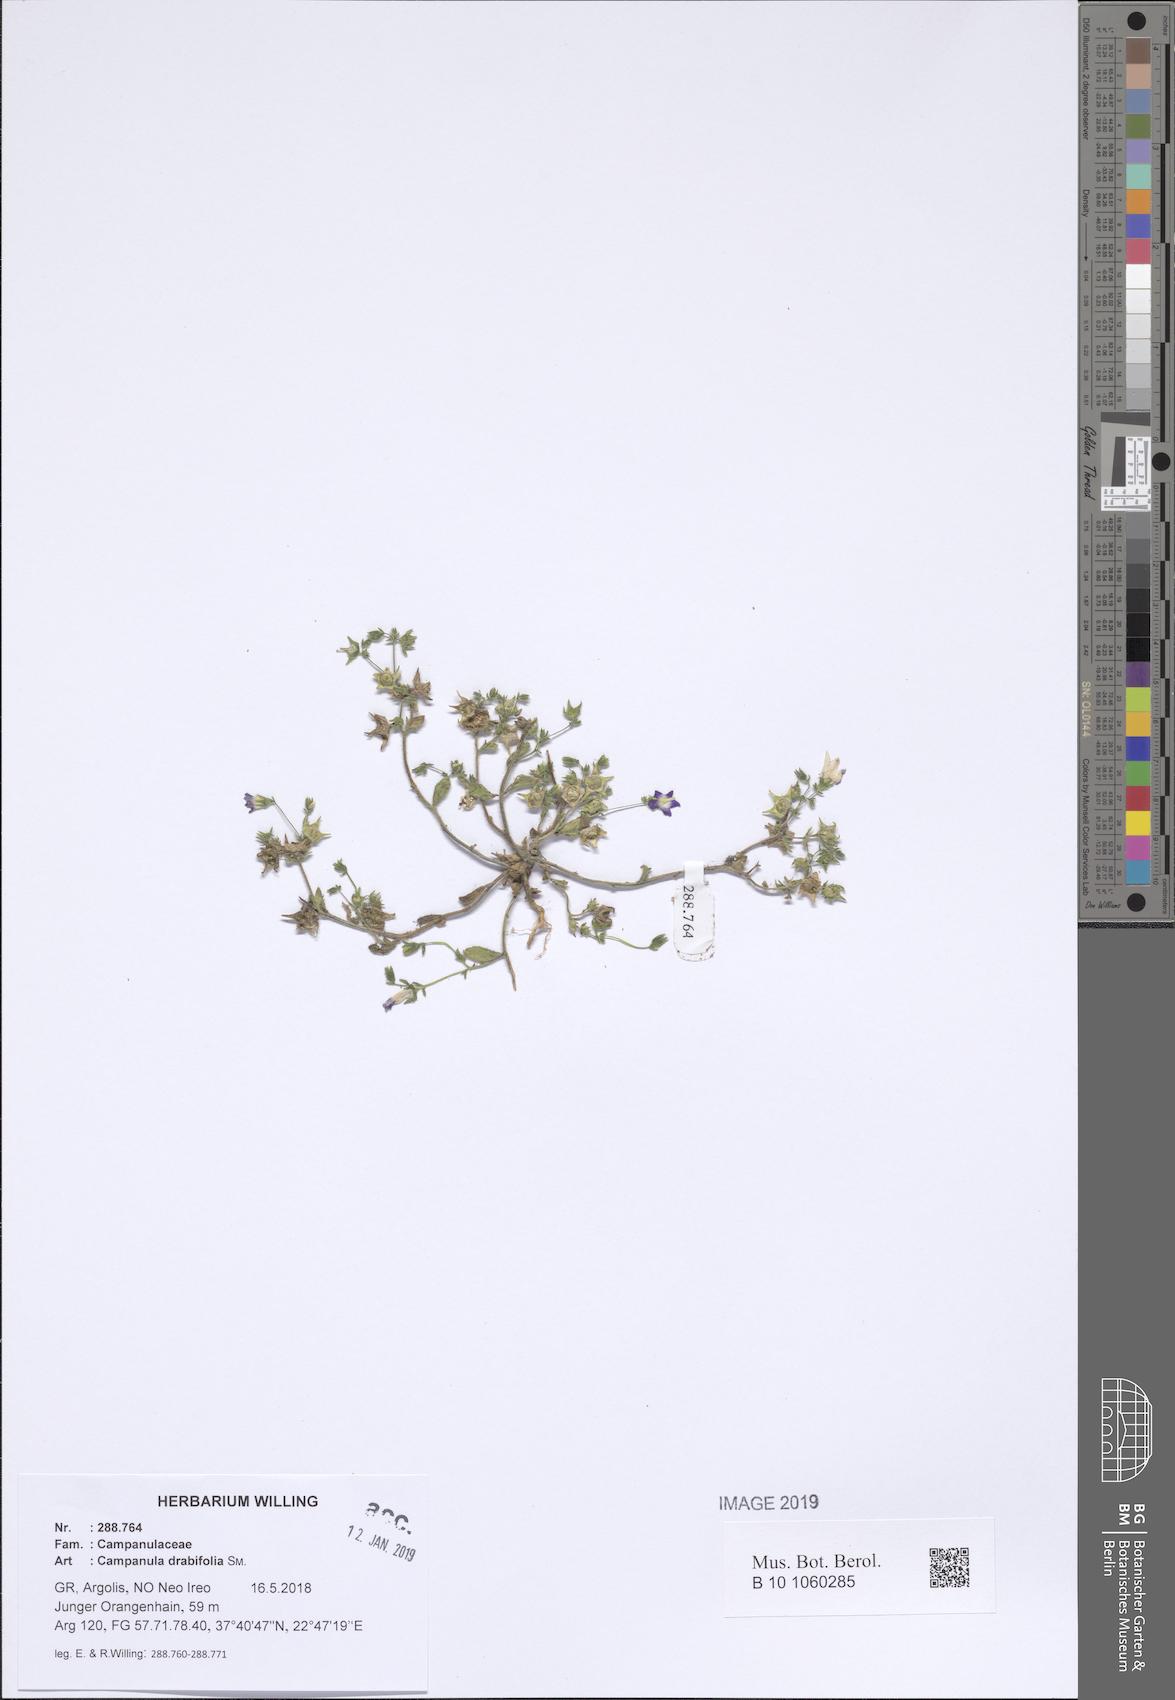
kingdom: Plantae
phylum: Tracheophyta
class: Magnoliopsida
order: Asterales
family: Campanulaceae
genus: Campanula
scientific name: Campanula drabifolia
